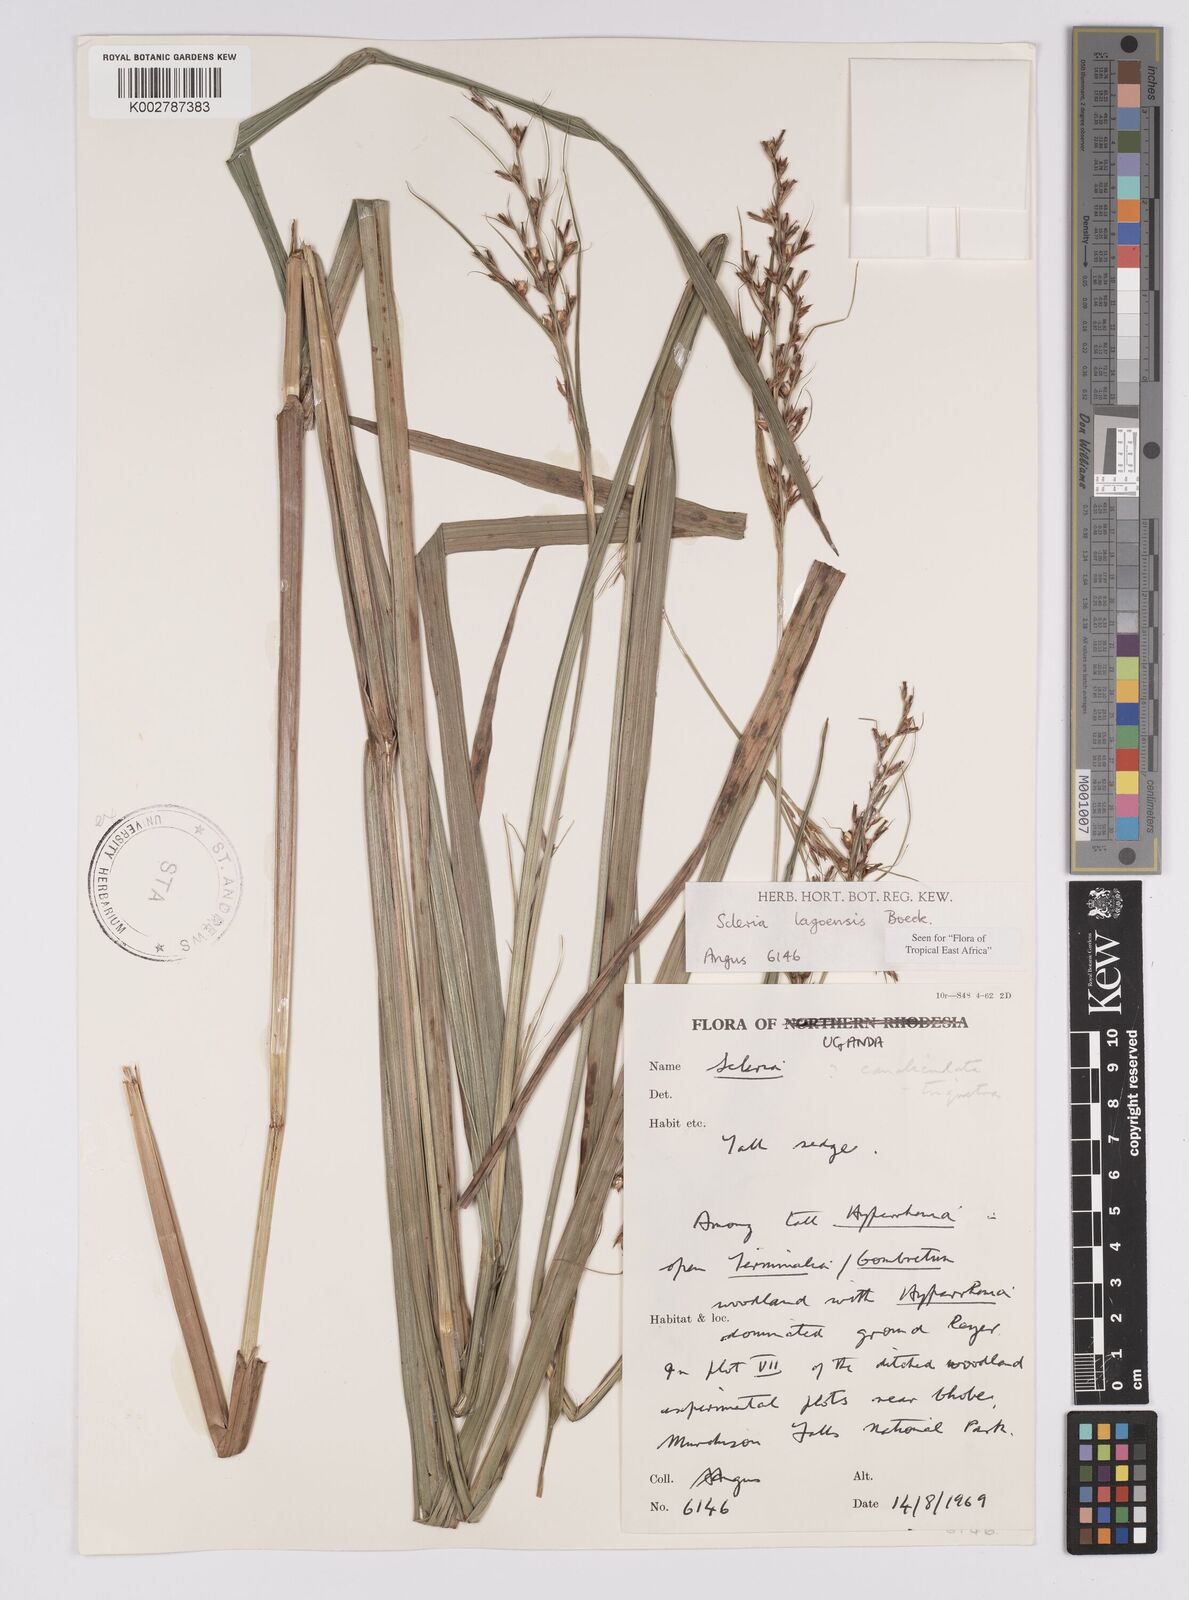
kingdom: Plantae
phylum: Tracheophyta
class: Liliopsida
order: Poales
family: Cyperaceae
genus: Scleria
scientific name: Scleria lagoensis
